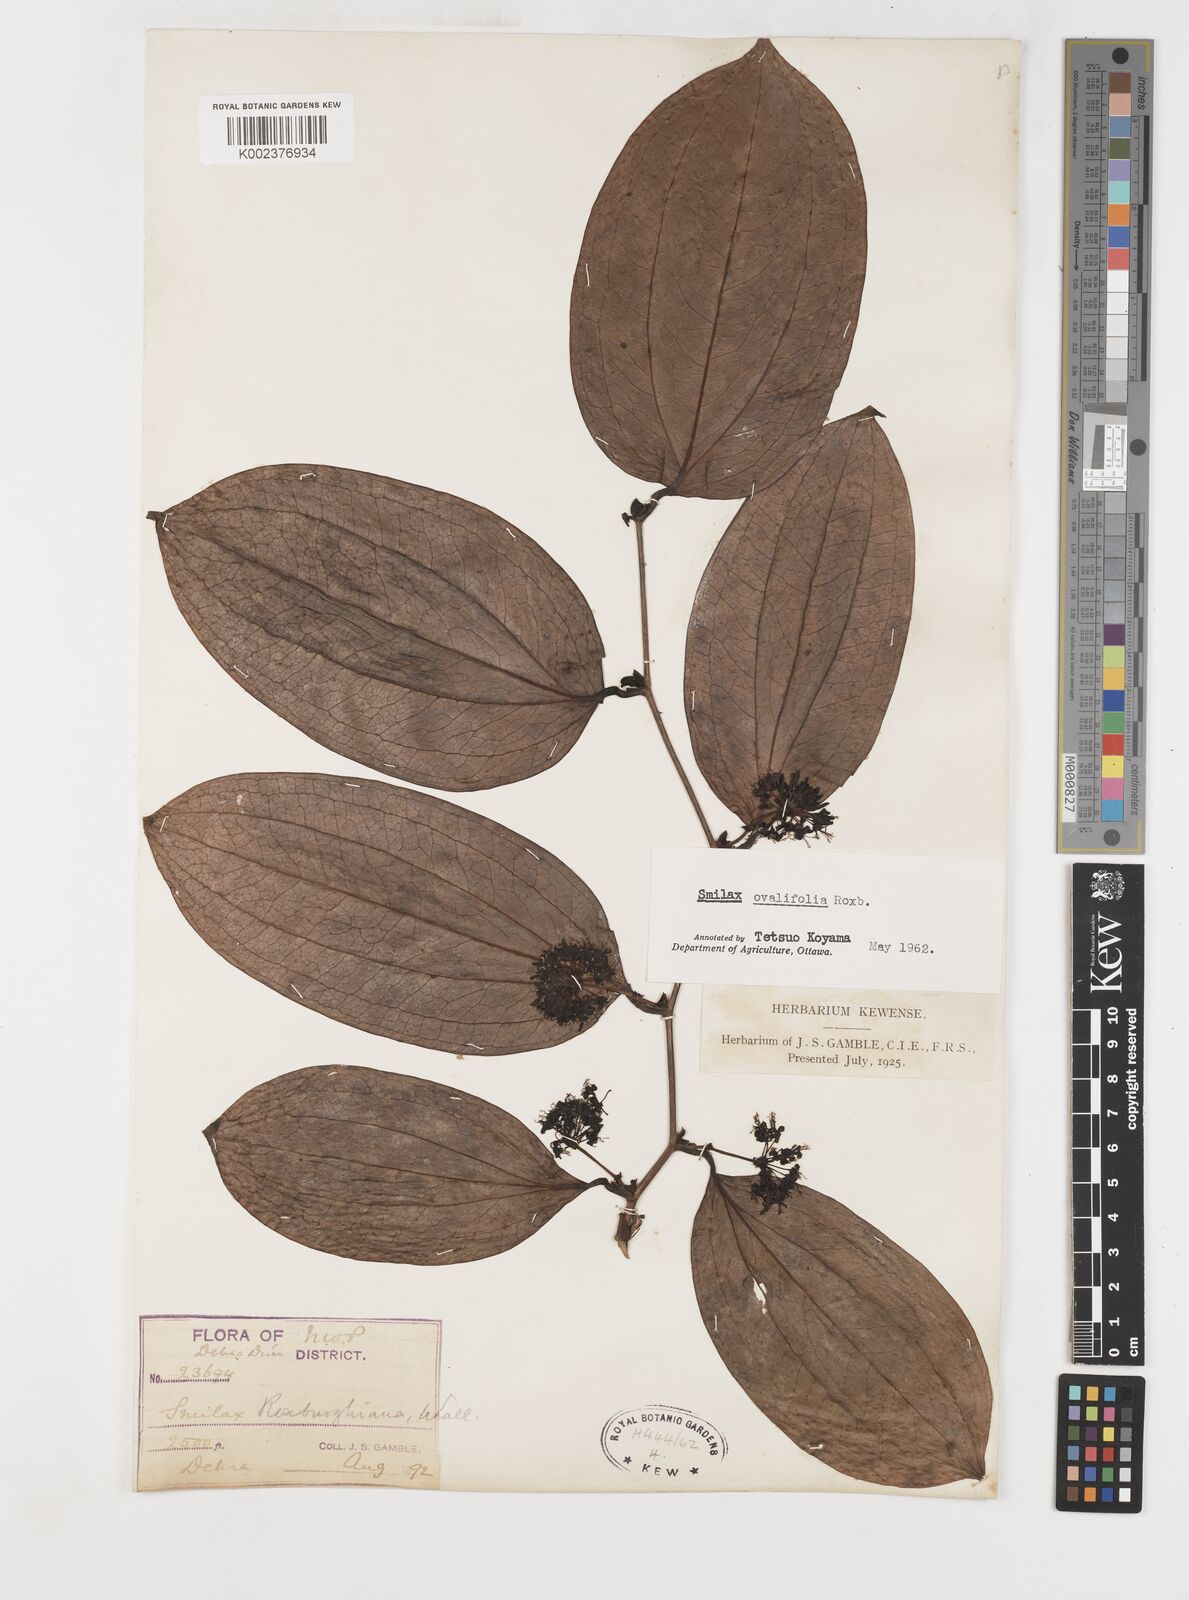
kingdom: Plantae
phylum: Tracheophyta
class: Liliopsida
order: Liliales
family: Smilacaceae
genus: Smilax
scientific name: Smilax ovalifolia
